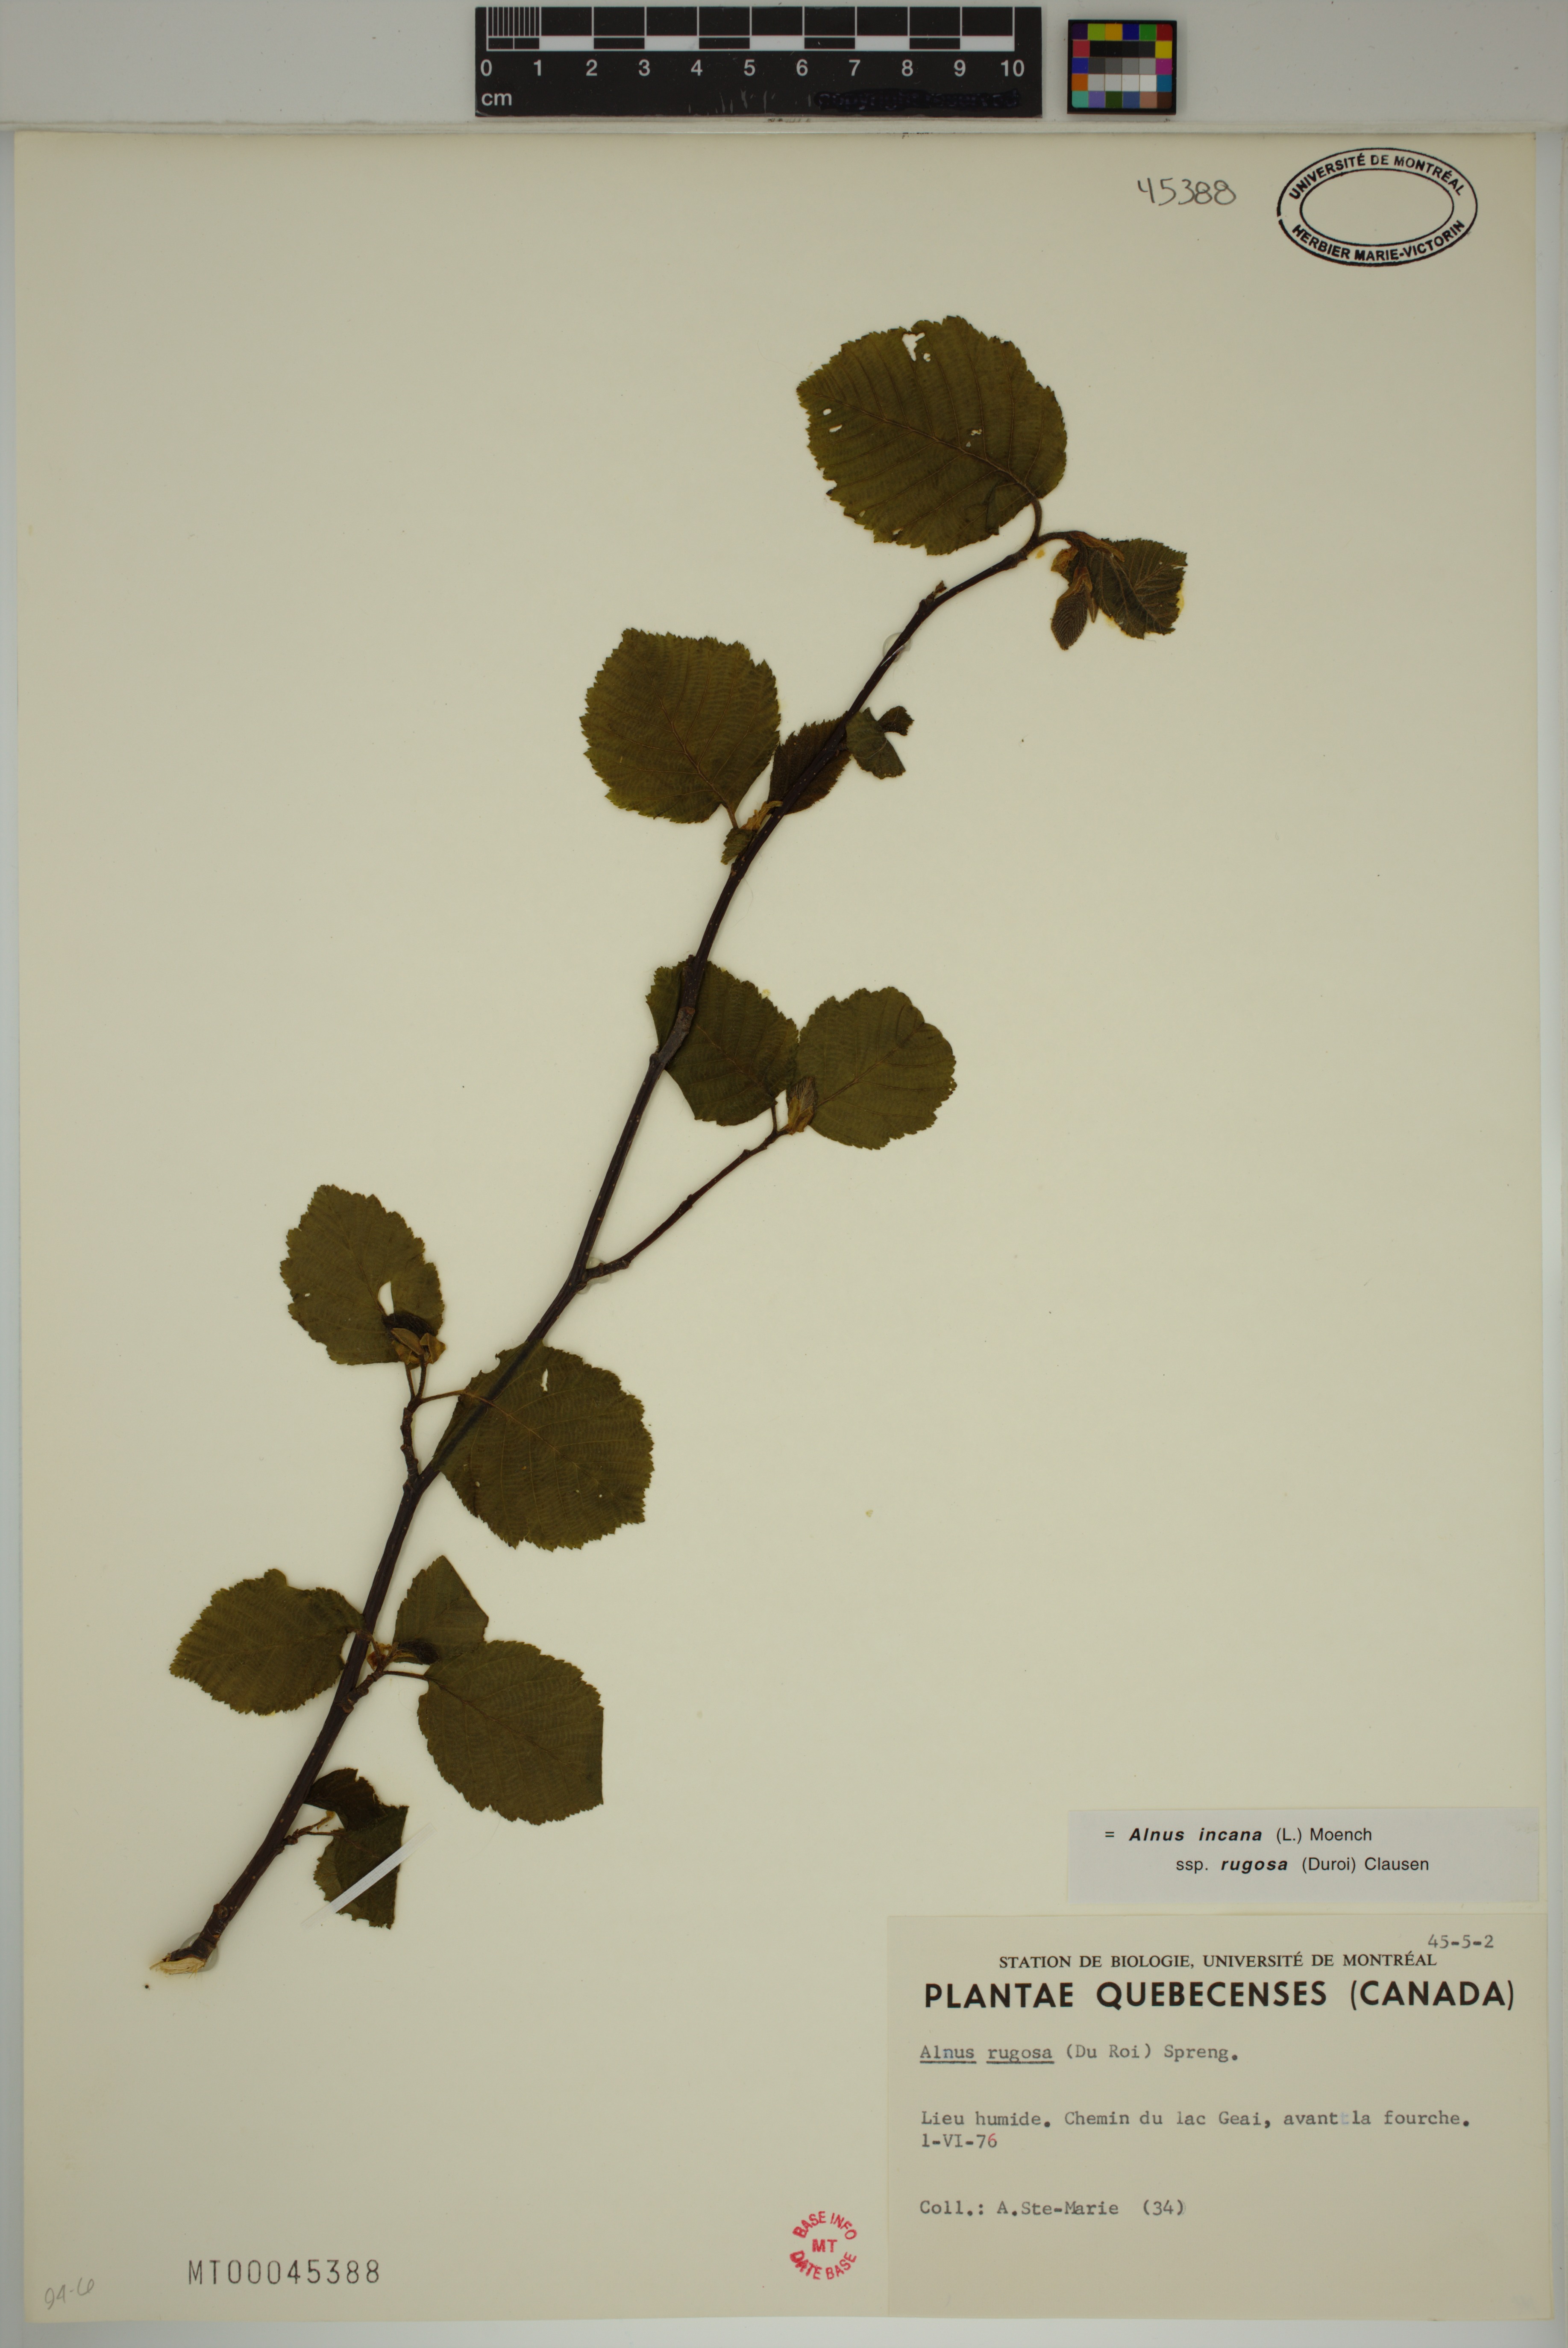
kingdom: Plantae
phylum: Tracheophyta
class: Magnoliopsida
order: Fagales
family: Betulaceae
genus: Alnus
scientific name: Alnus incana
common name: Grey alder
